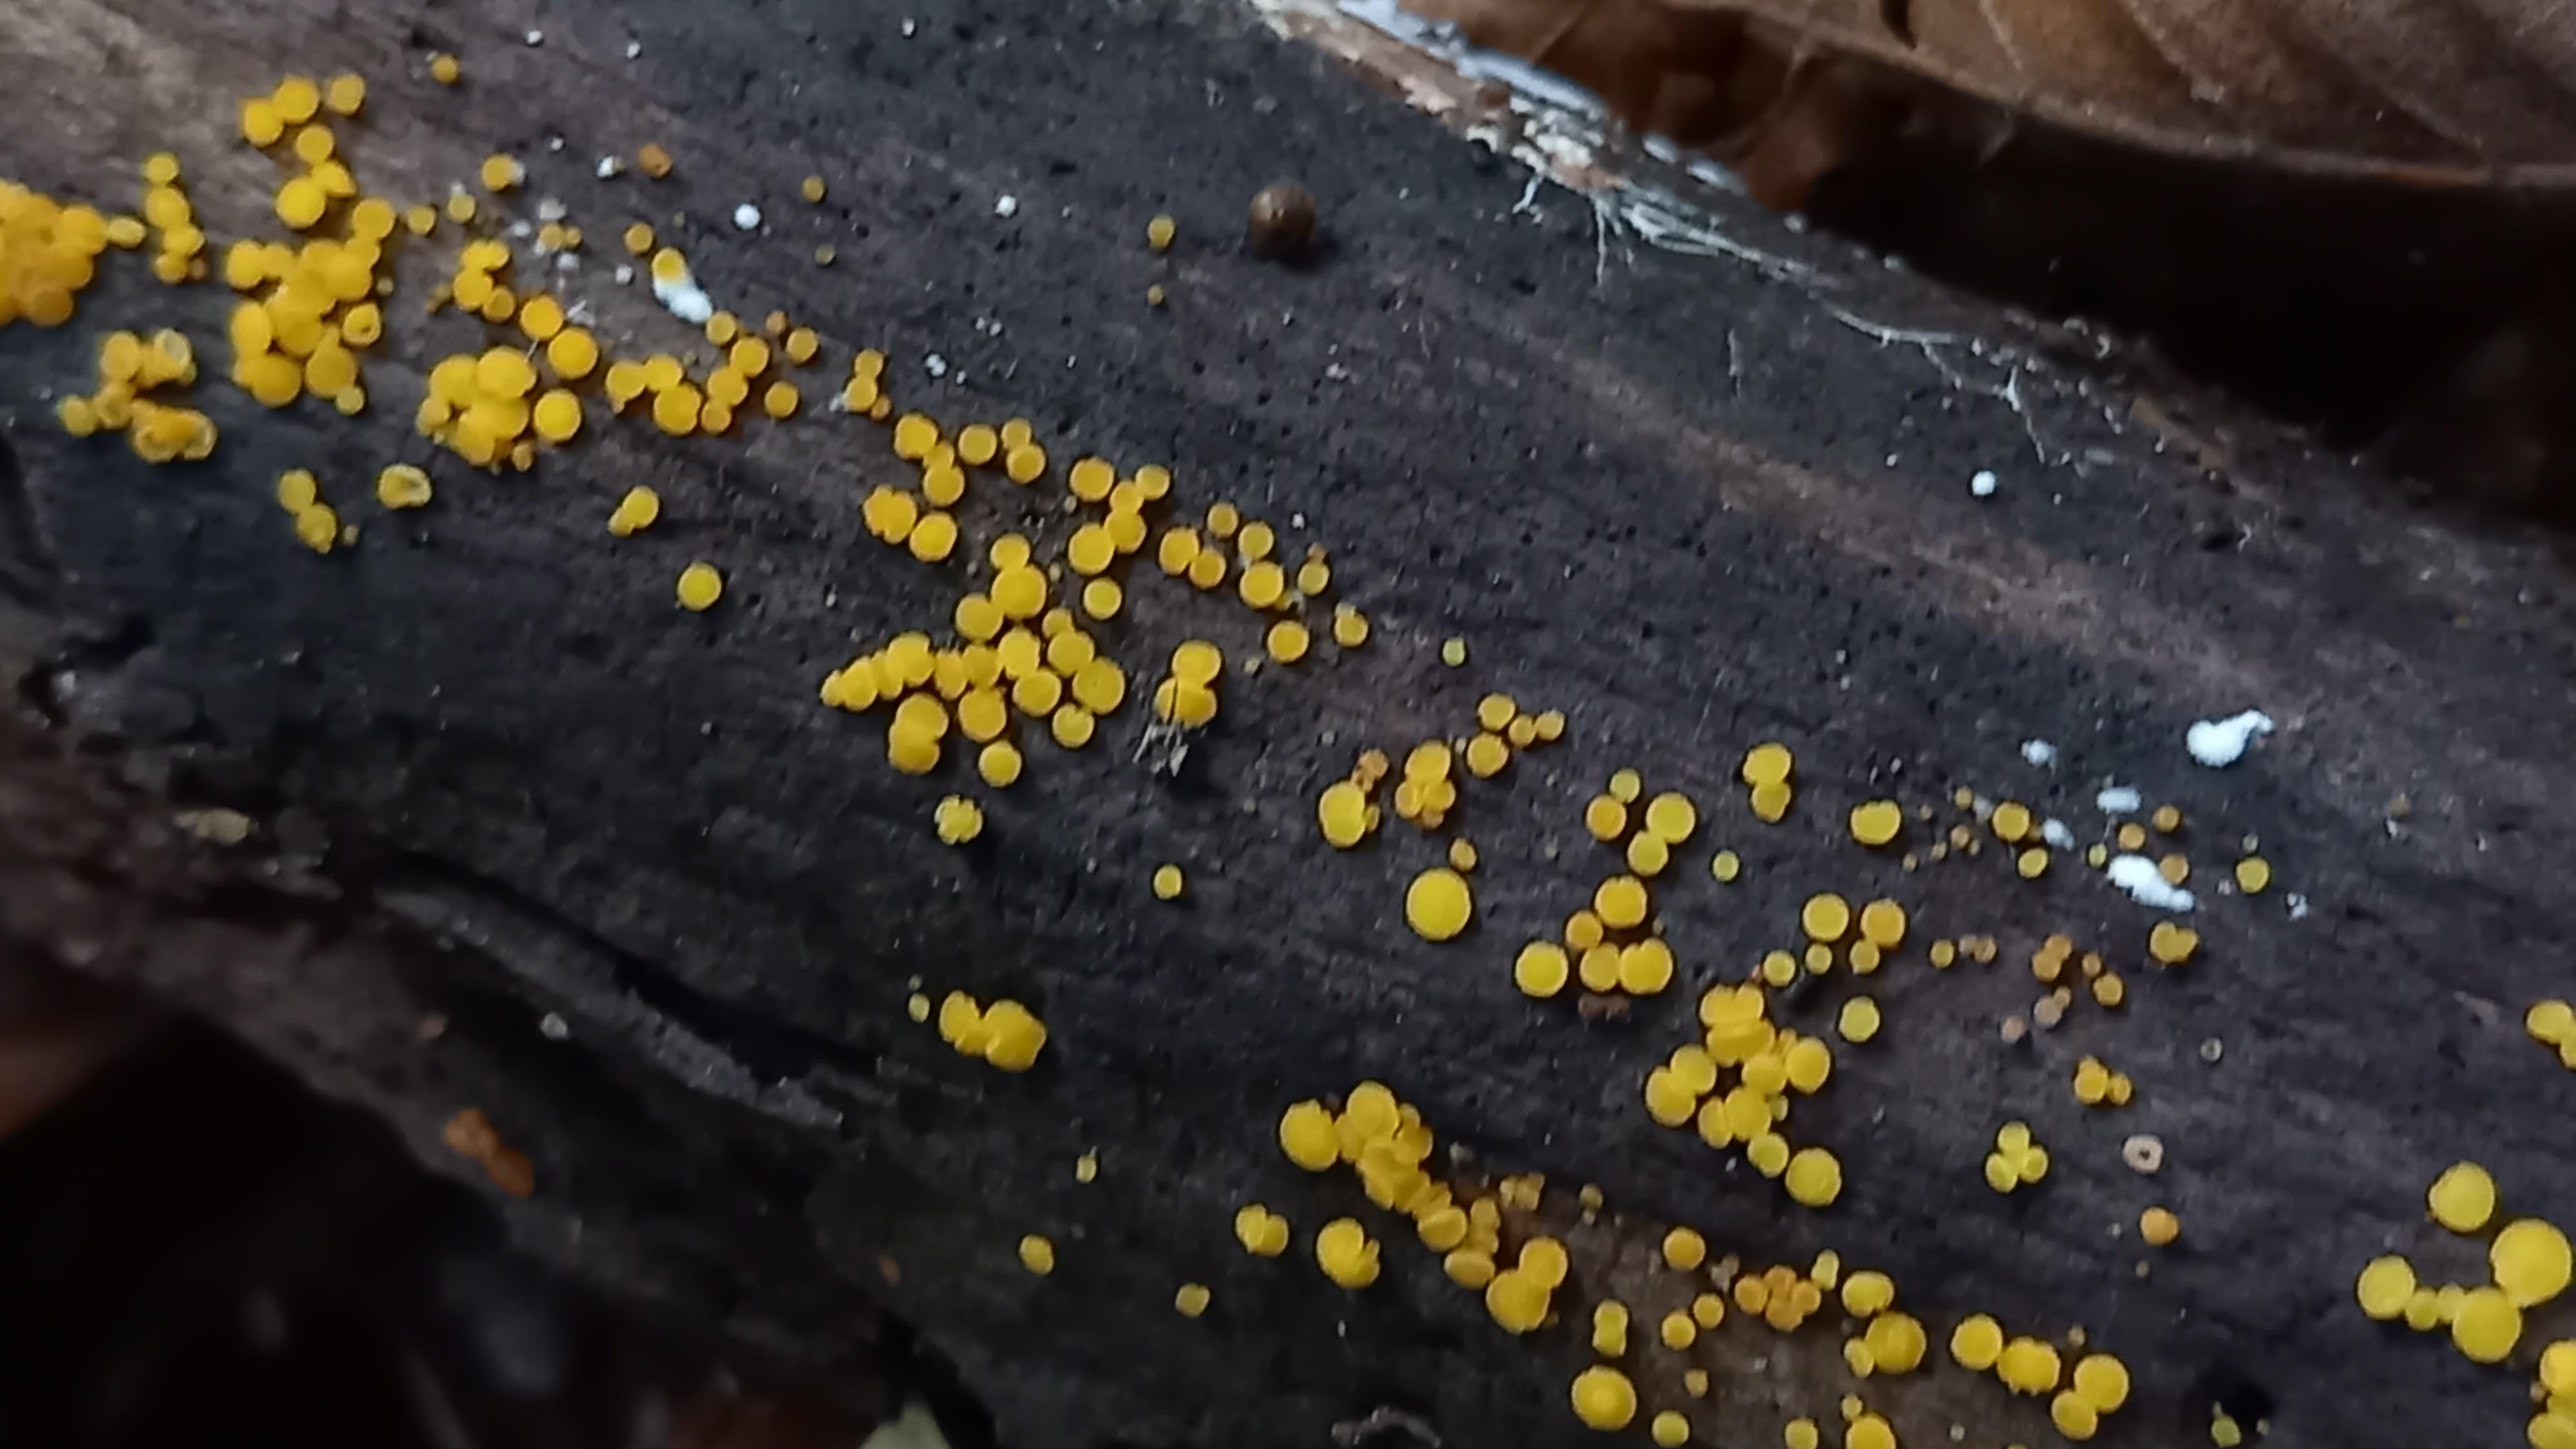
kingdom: Fungi
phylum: Ascomycota
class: Leotiomycetes
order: Helotiales
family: Pezizellaceae
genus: Calycina
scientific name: Calycina citrina
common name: almindelig gulskive
